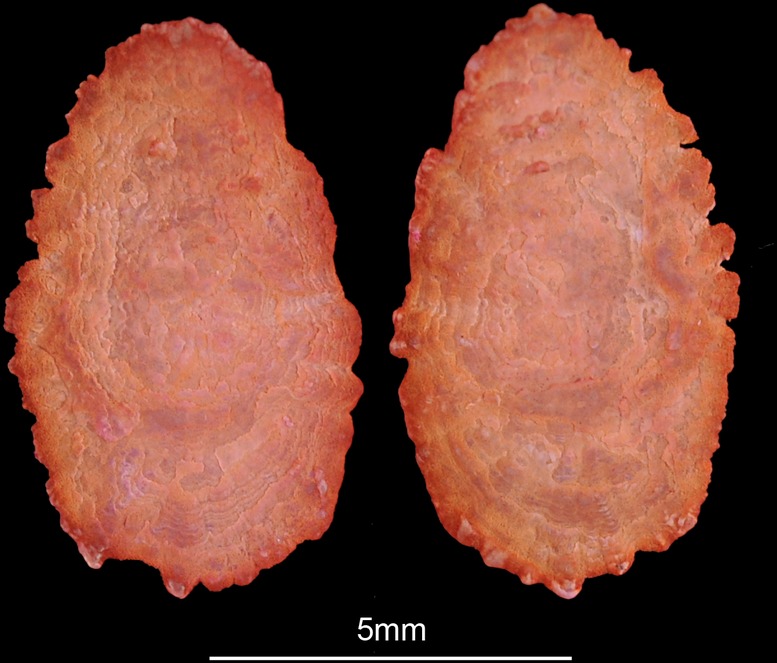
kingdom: Animalia
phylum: Chordata
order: Perciformes
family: Cichlidae
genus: Coptodon
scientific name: Coptodon rendalli
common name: Redbreast tilapia
